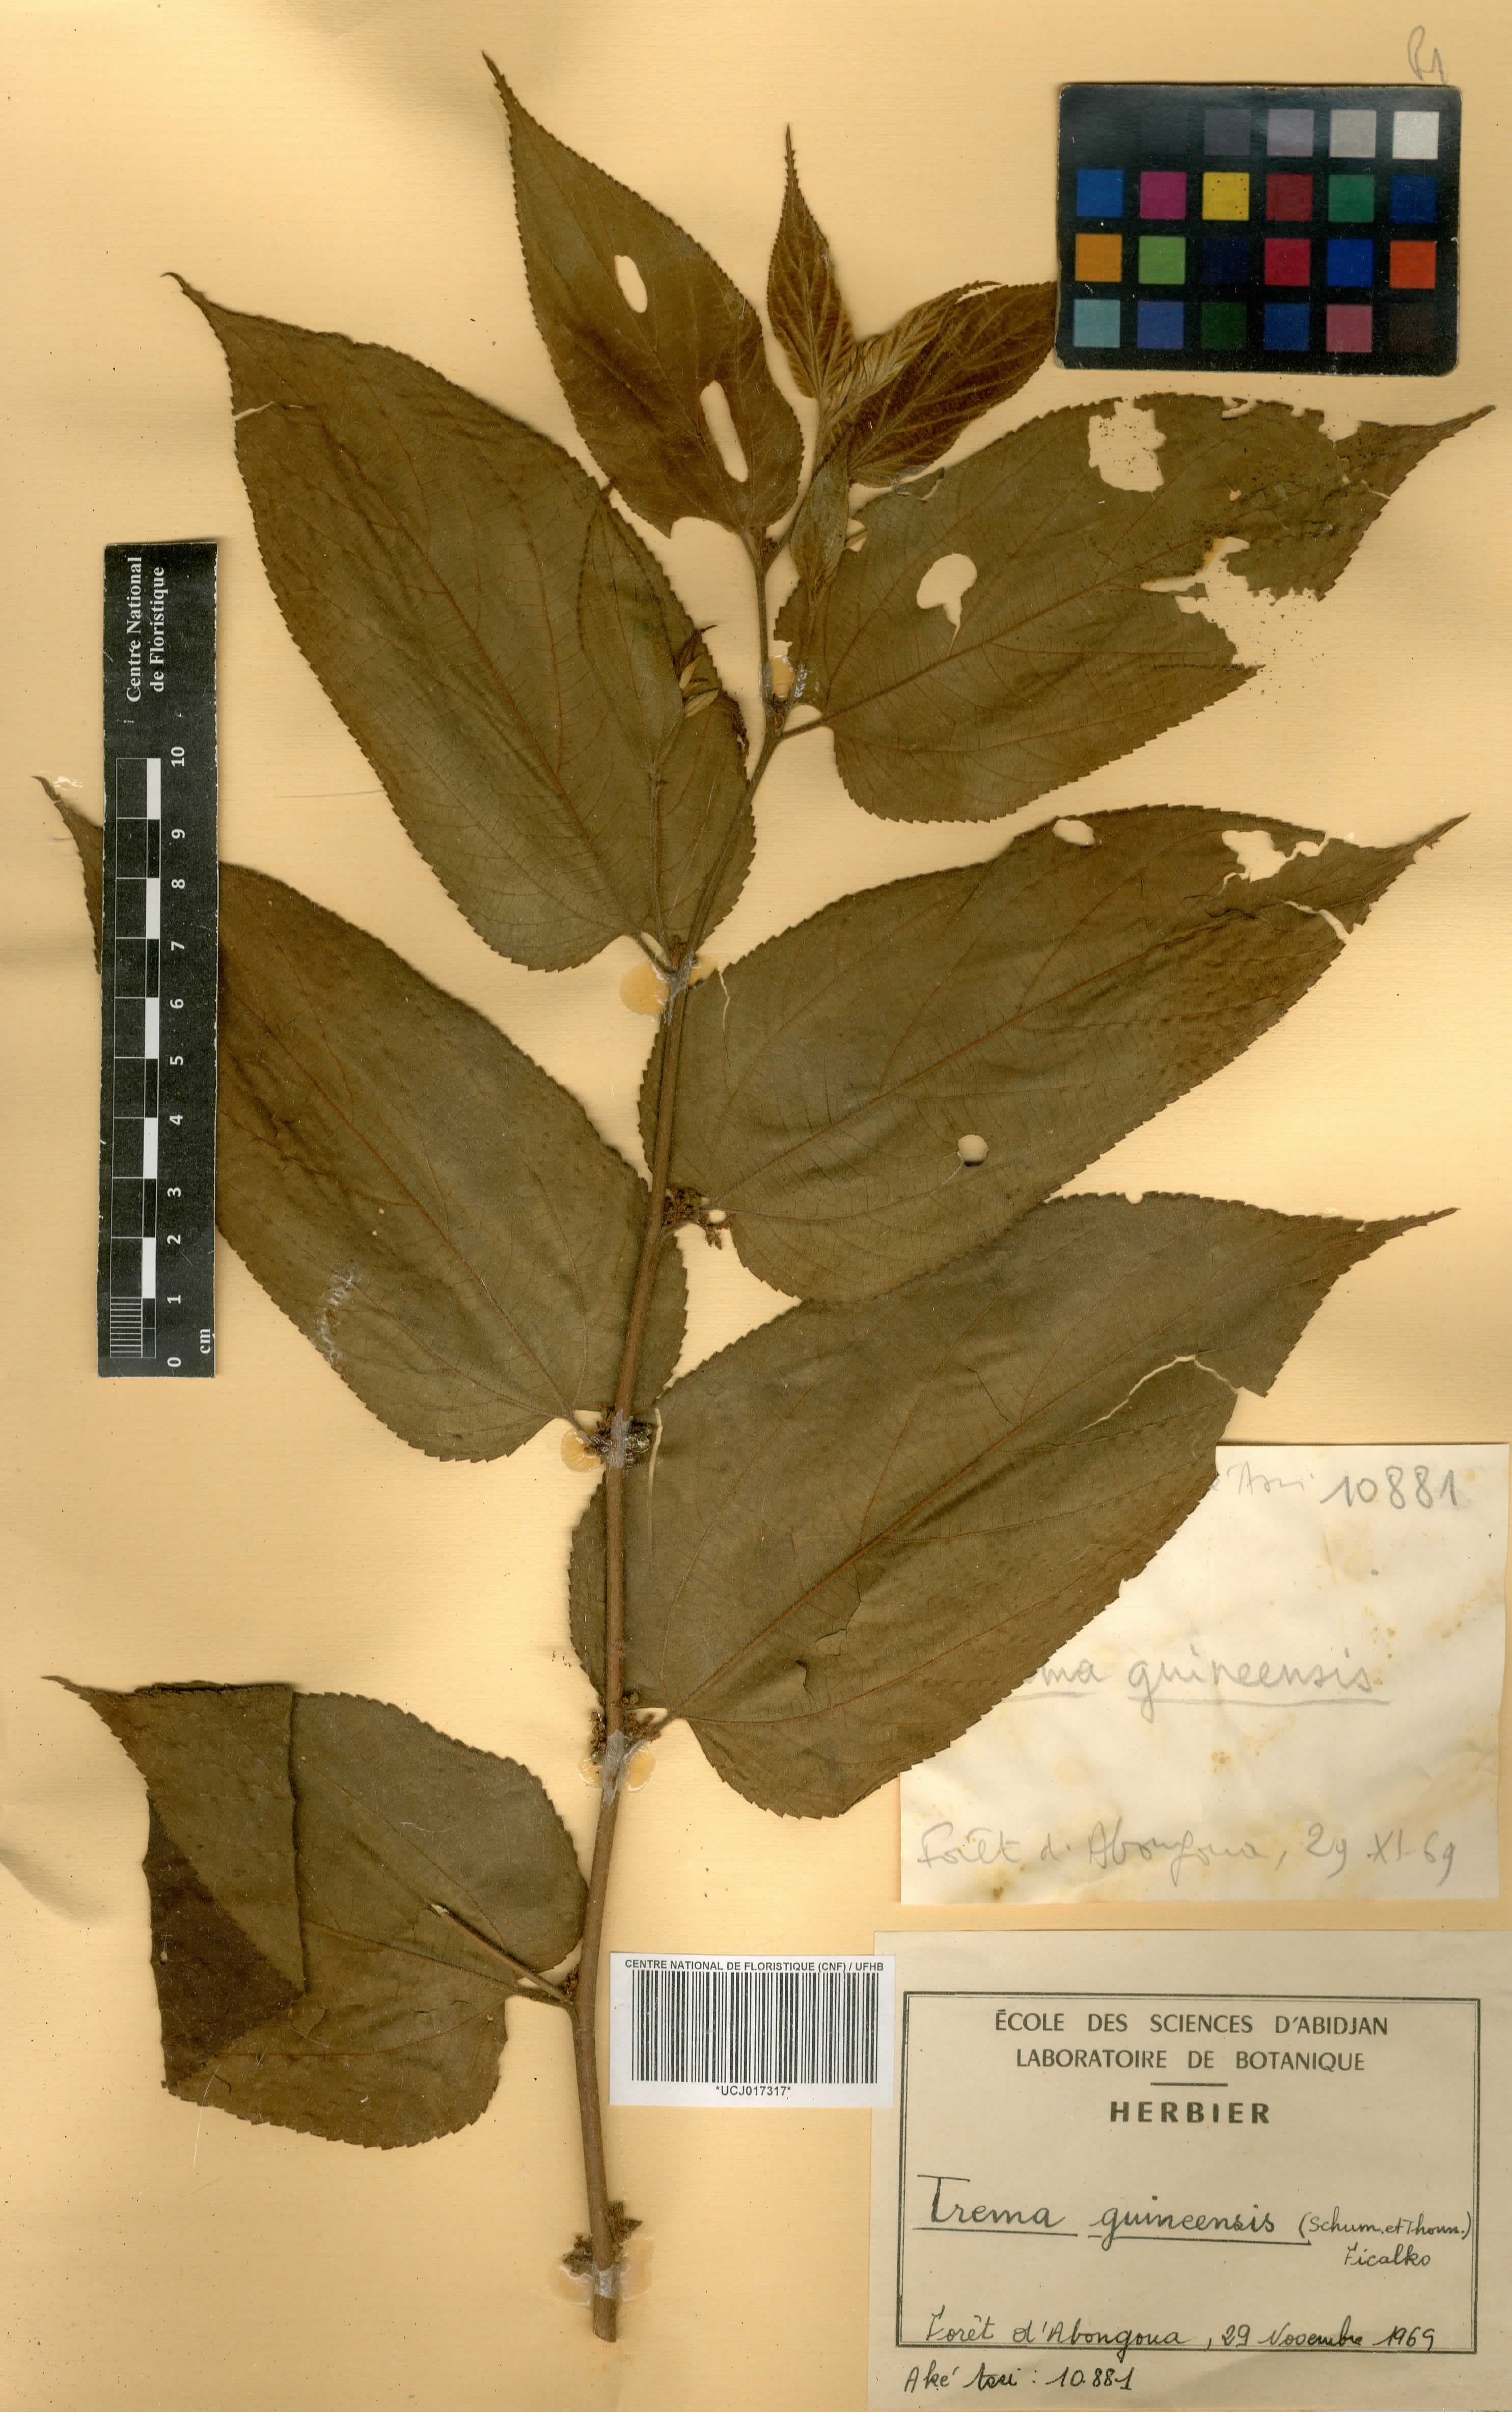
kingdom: Plantae
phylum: Tracheophyta
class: Magnoliopsida
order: Rosales
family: Cannabaceae
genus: Trema
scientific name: Trema orientale
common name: Indian charcoal tree
